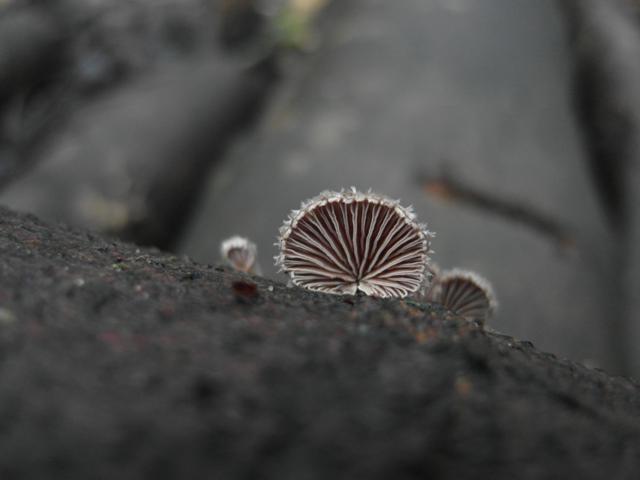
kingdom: Fungi
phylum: Basidiomycota
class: Agaricomycetes
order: Agaricales
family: Schizophyllaceae
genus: Schizophyllum
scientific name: Schizophyllum commune
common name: kløvblad
